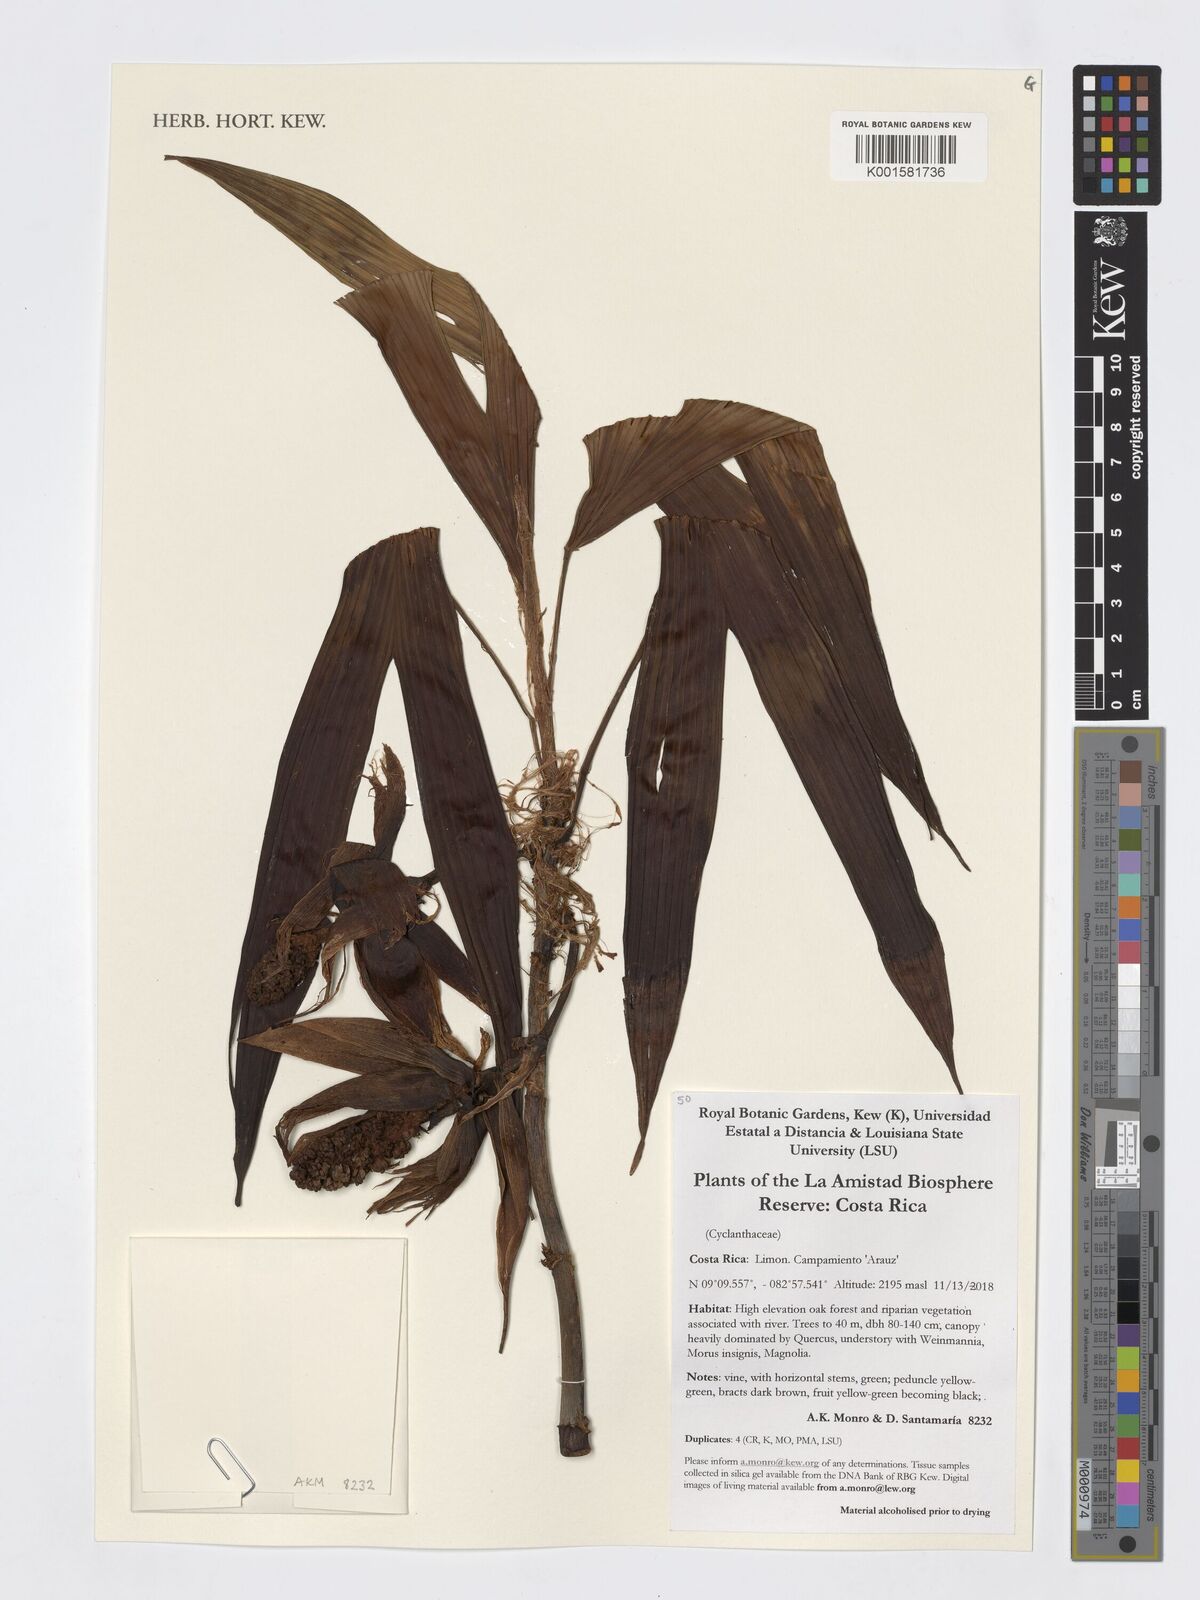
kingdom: Plantae
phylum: Tracheophyta
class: Liliopsida
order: Pandanales
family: Cyclanthaceae
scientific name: Cyclanthaceae
